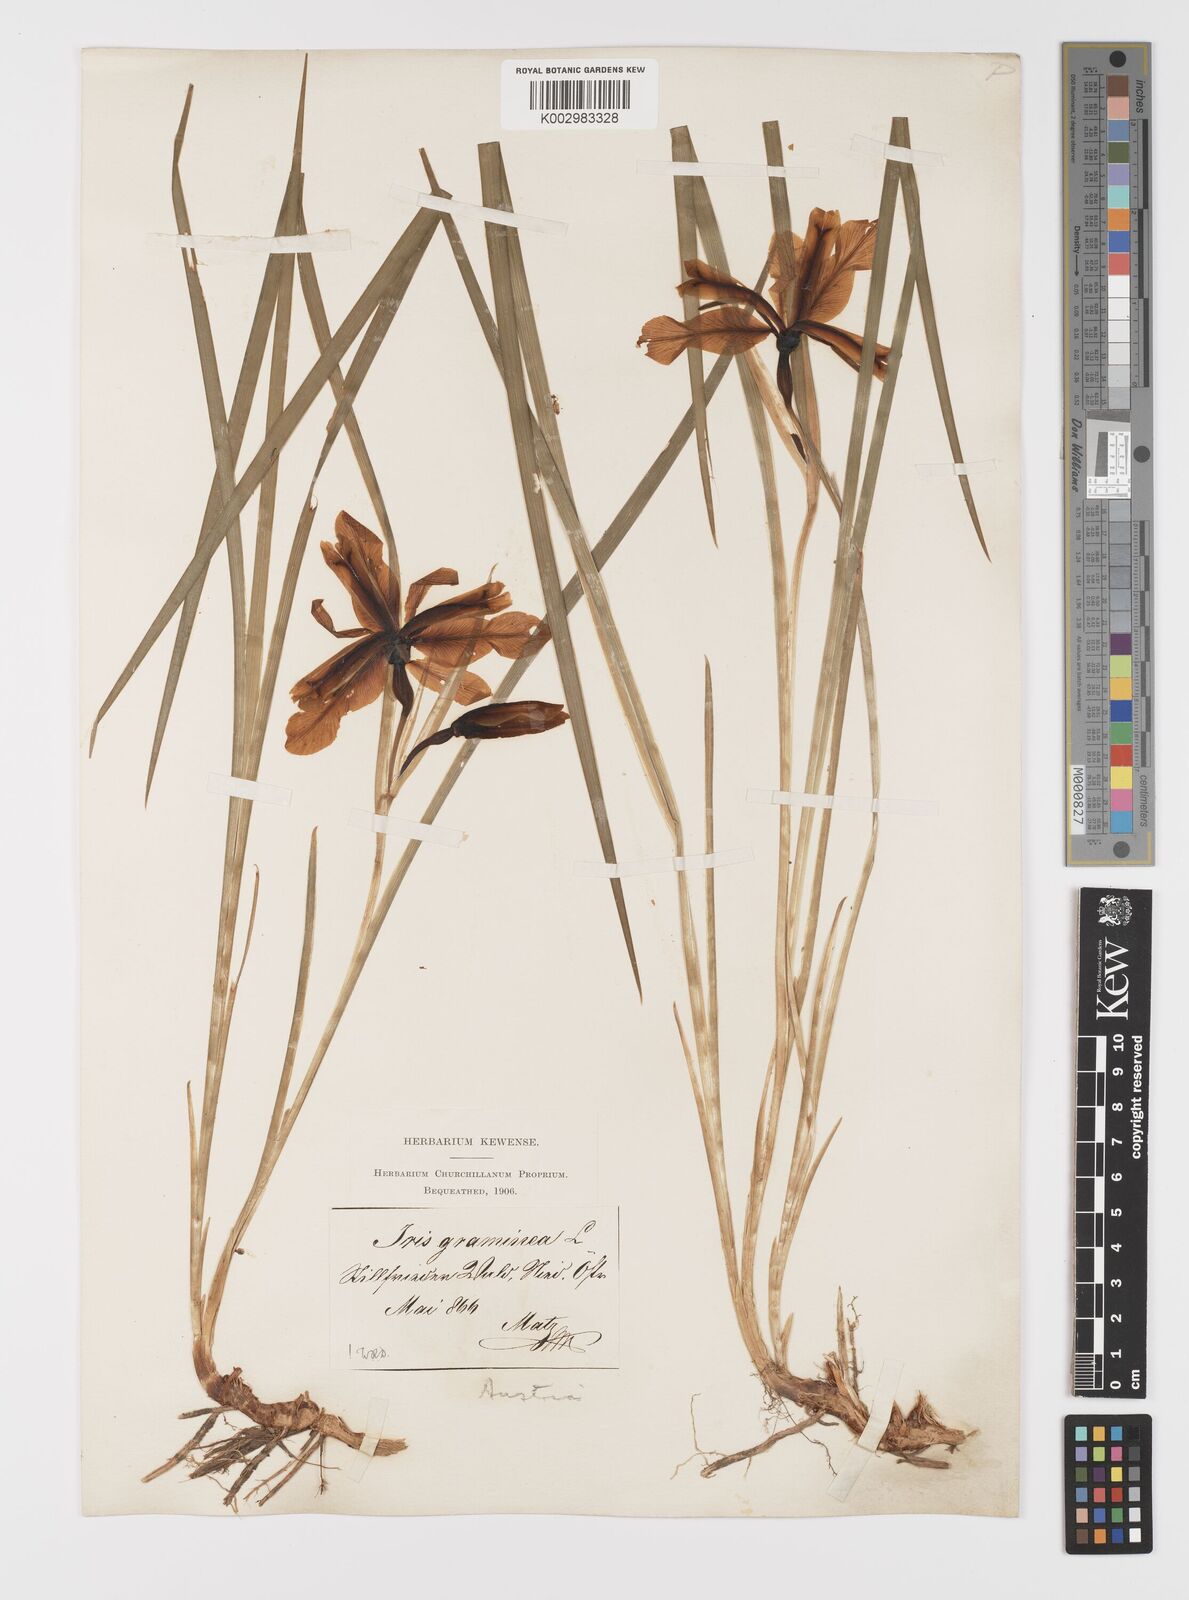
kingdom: Plantae
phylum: Tracheophyta
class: Liliopsida
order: Asparagales
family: Iridaceae
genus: Iris
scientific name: Iris graminea
